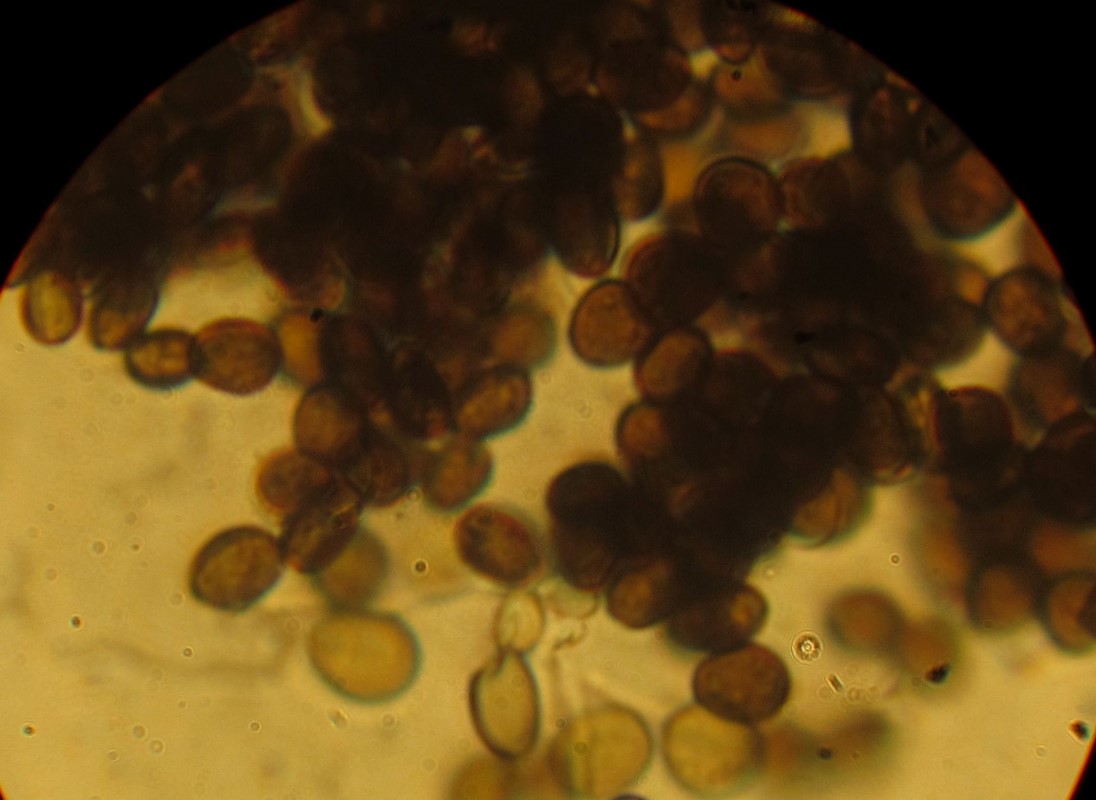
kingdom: Fungi
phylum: Ascomycota
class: Sordariomycetes
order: Xylariales
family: Apiosporaceae
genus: Apiospora
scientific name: Apiospora arundinis
